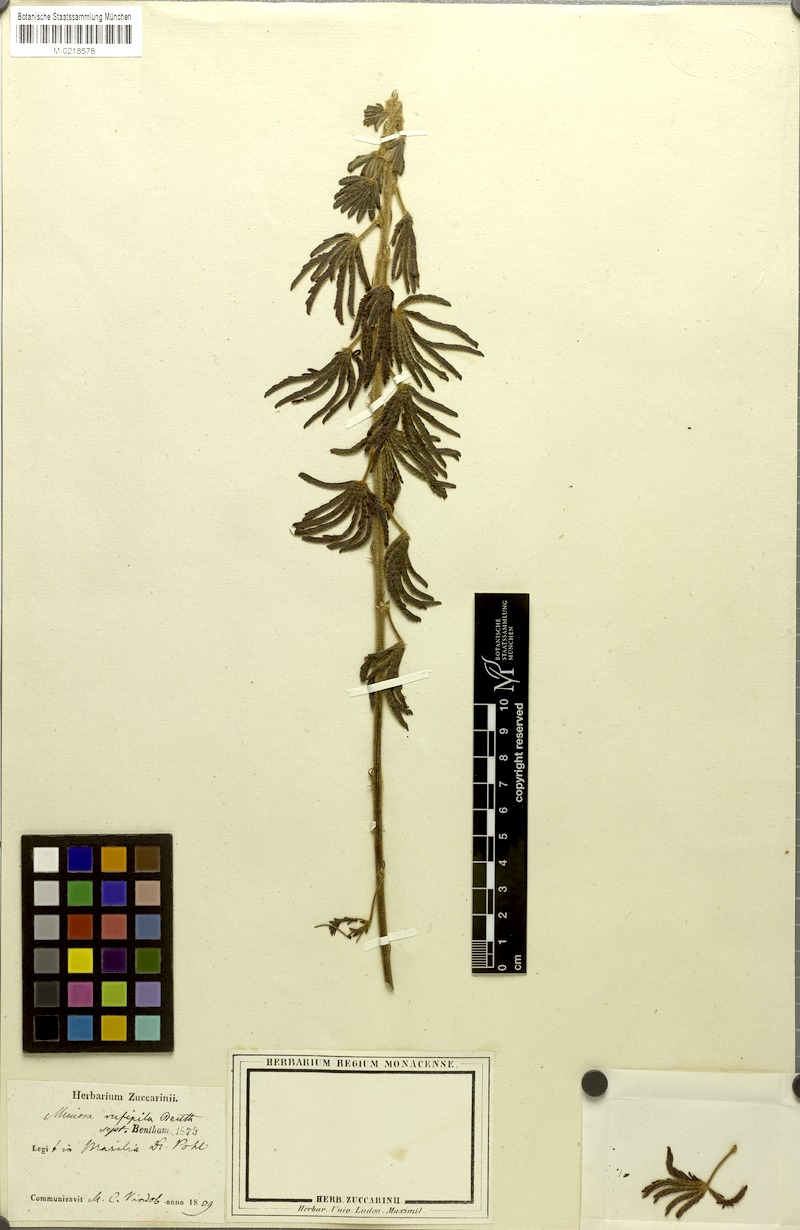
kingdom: Plantae
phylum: Tracheophyta
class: Magnoliopsida
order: Fabales
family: Fabaceae
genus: Mimosa
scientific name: Mimosa rufipila
